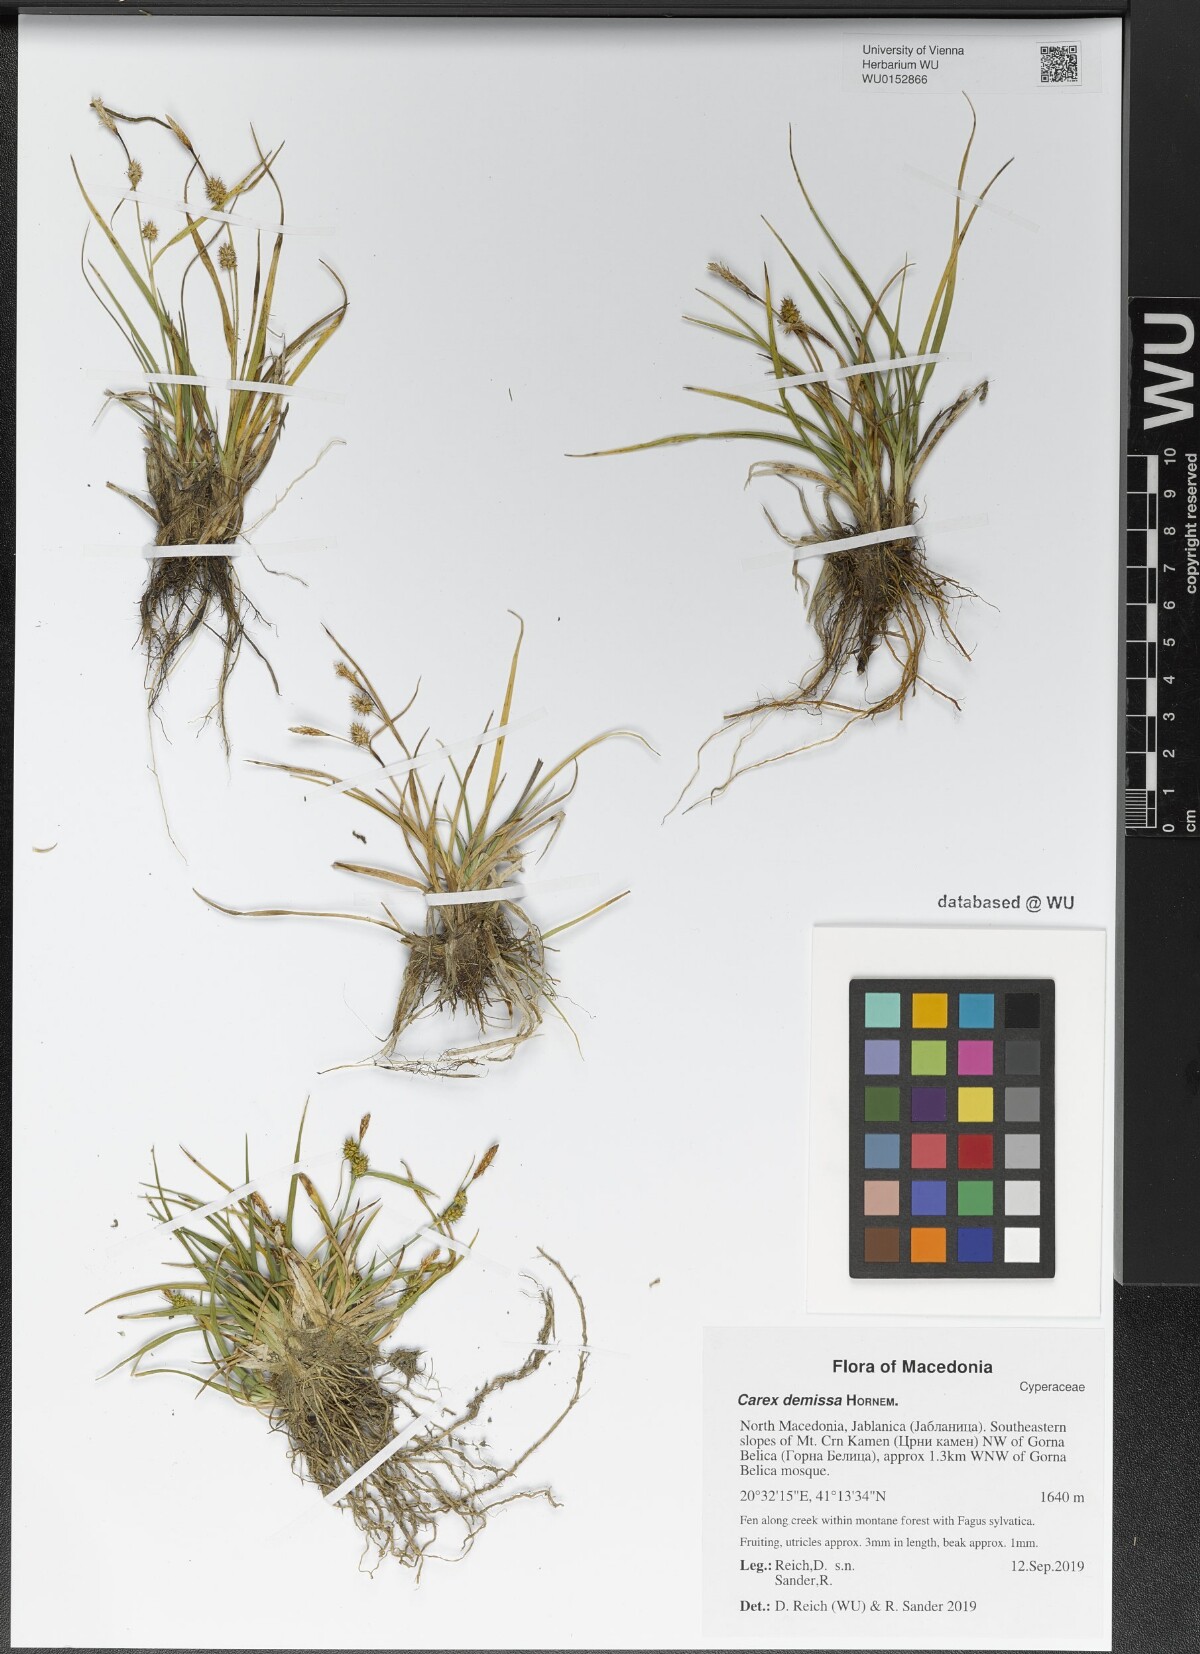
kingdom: Plantae
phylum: Tracheophyta
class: Liliopsida
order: Poales
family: Cyperaceae
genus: Carex
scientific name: Carex demissa
